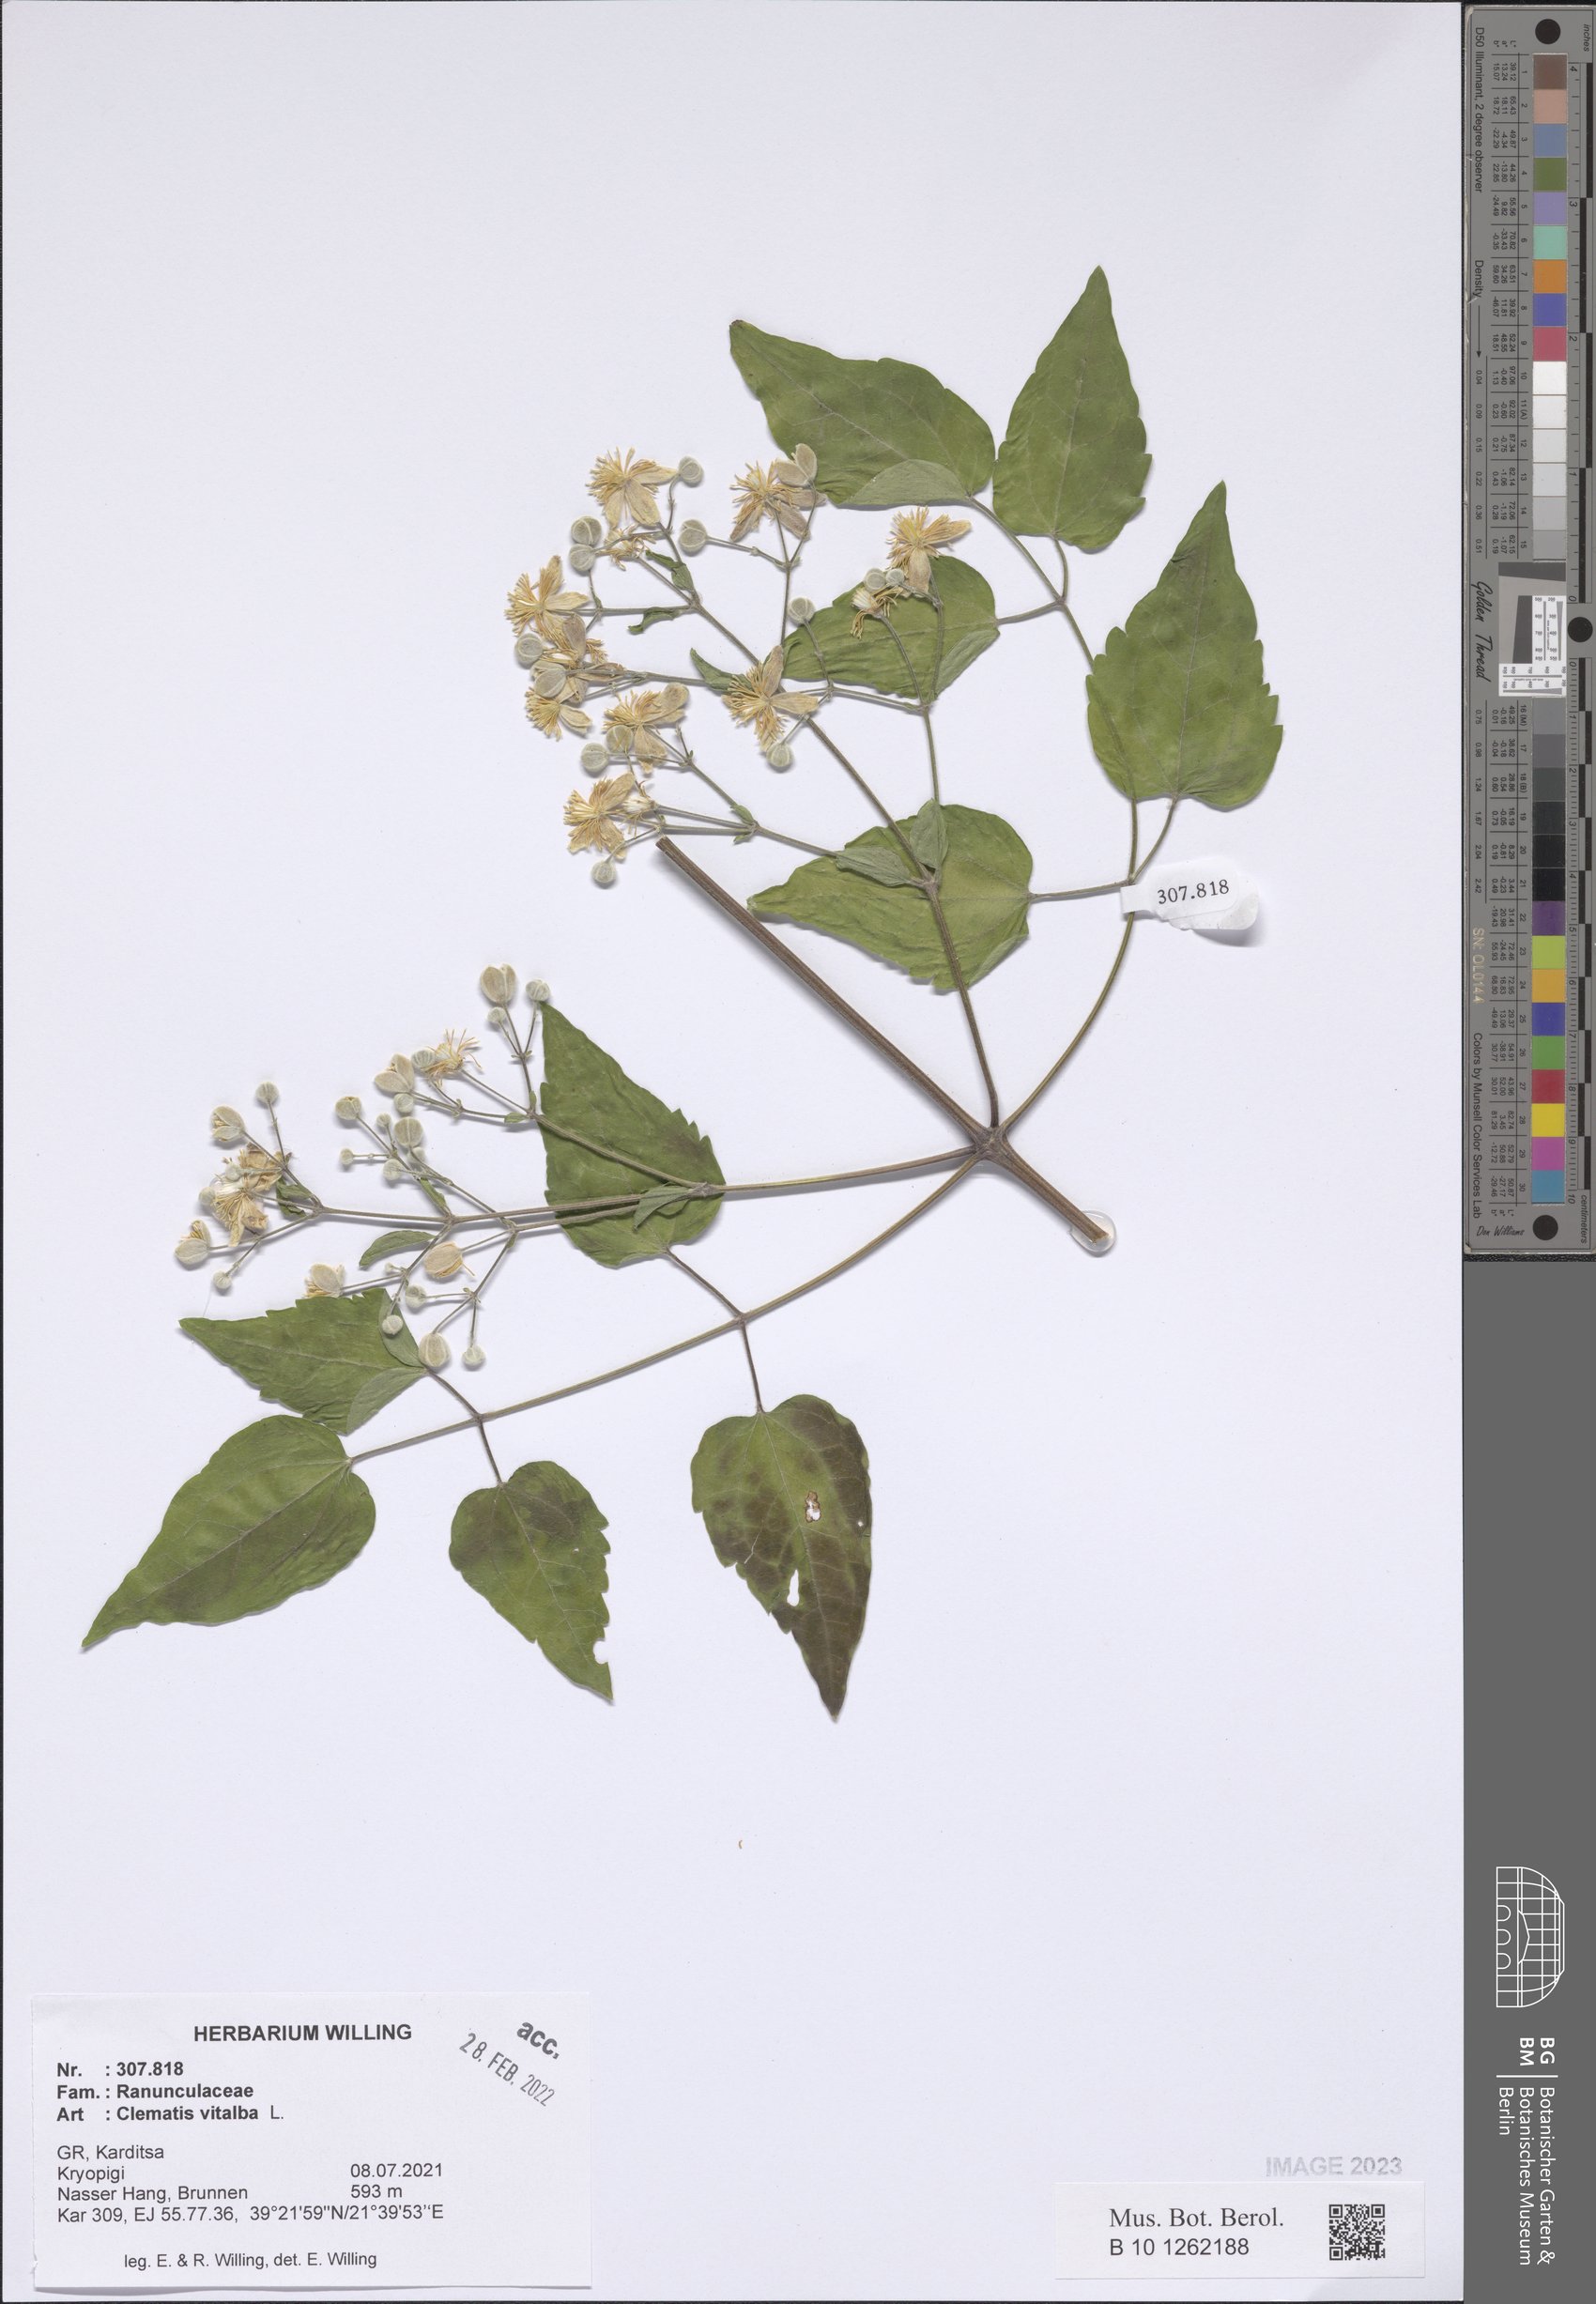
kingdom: Plantae
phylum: Tracheophyta
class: Magnoliopsida
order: Ranunculales
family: Ranunculaceae
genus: Clematis
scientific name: Clematis vitalba
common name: Evergreen clematis
